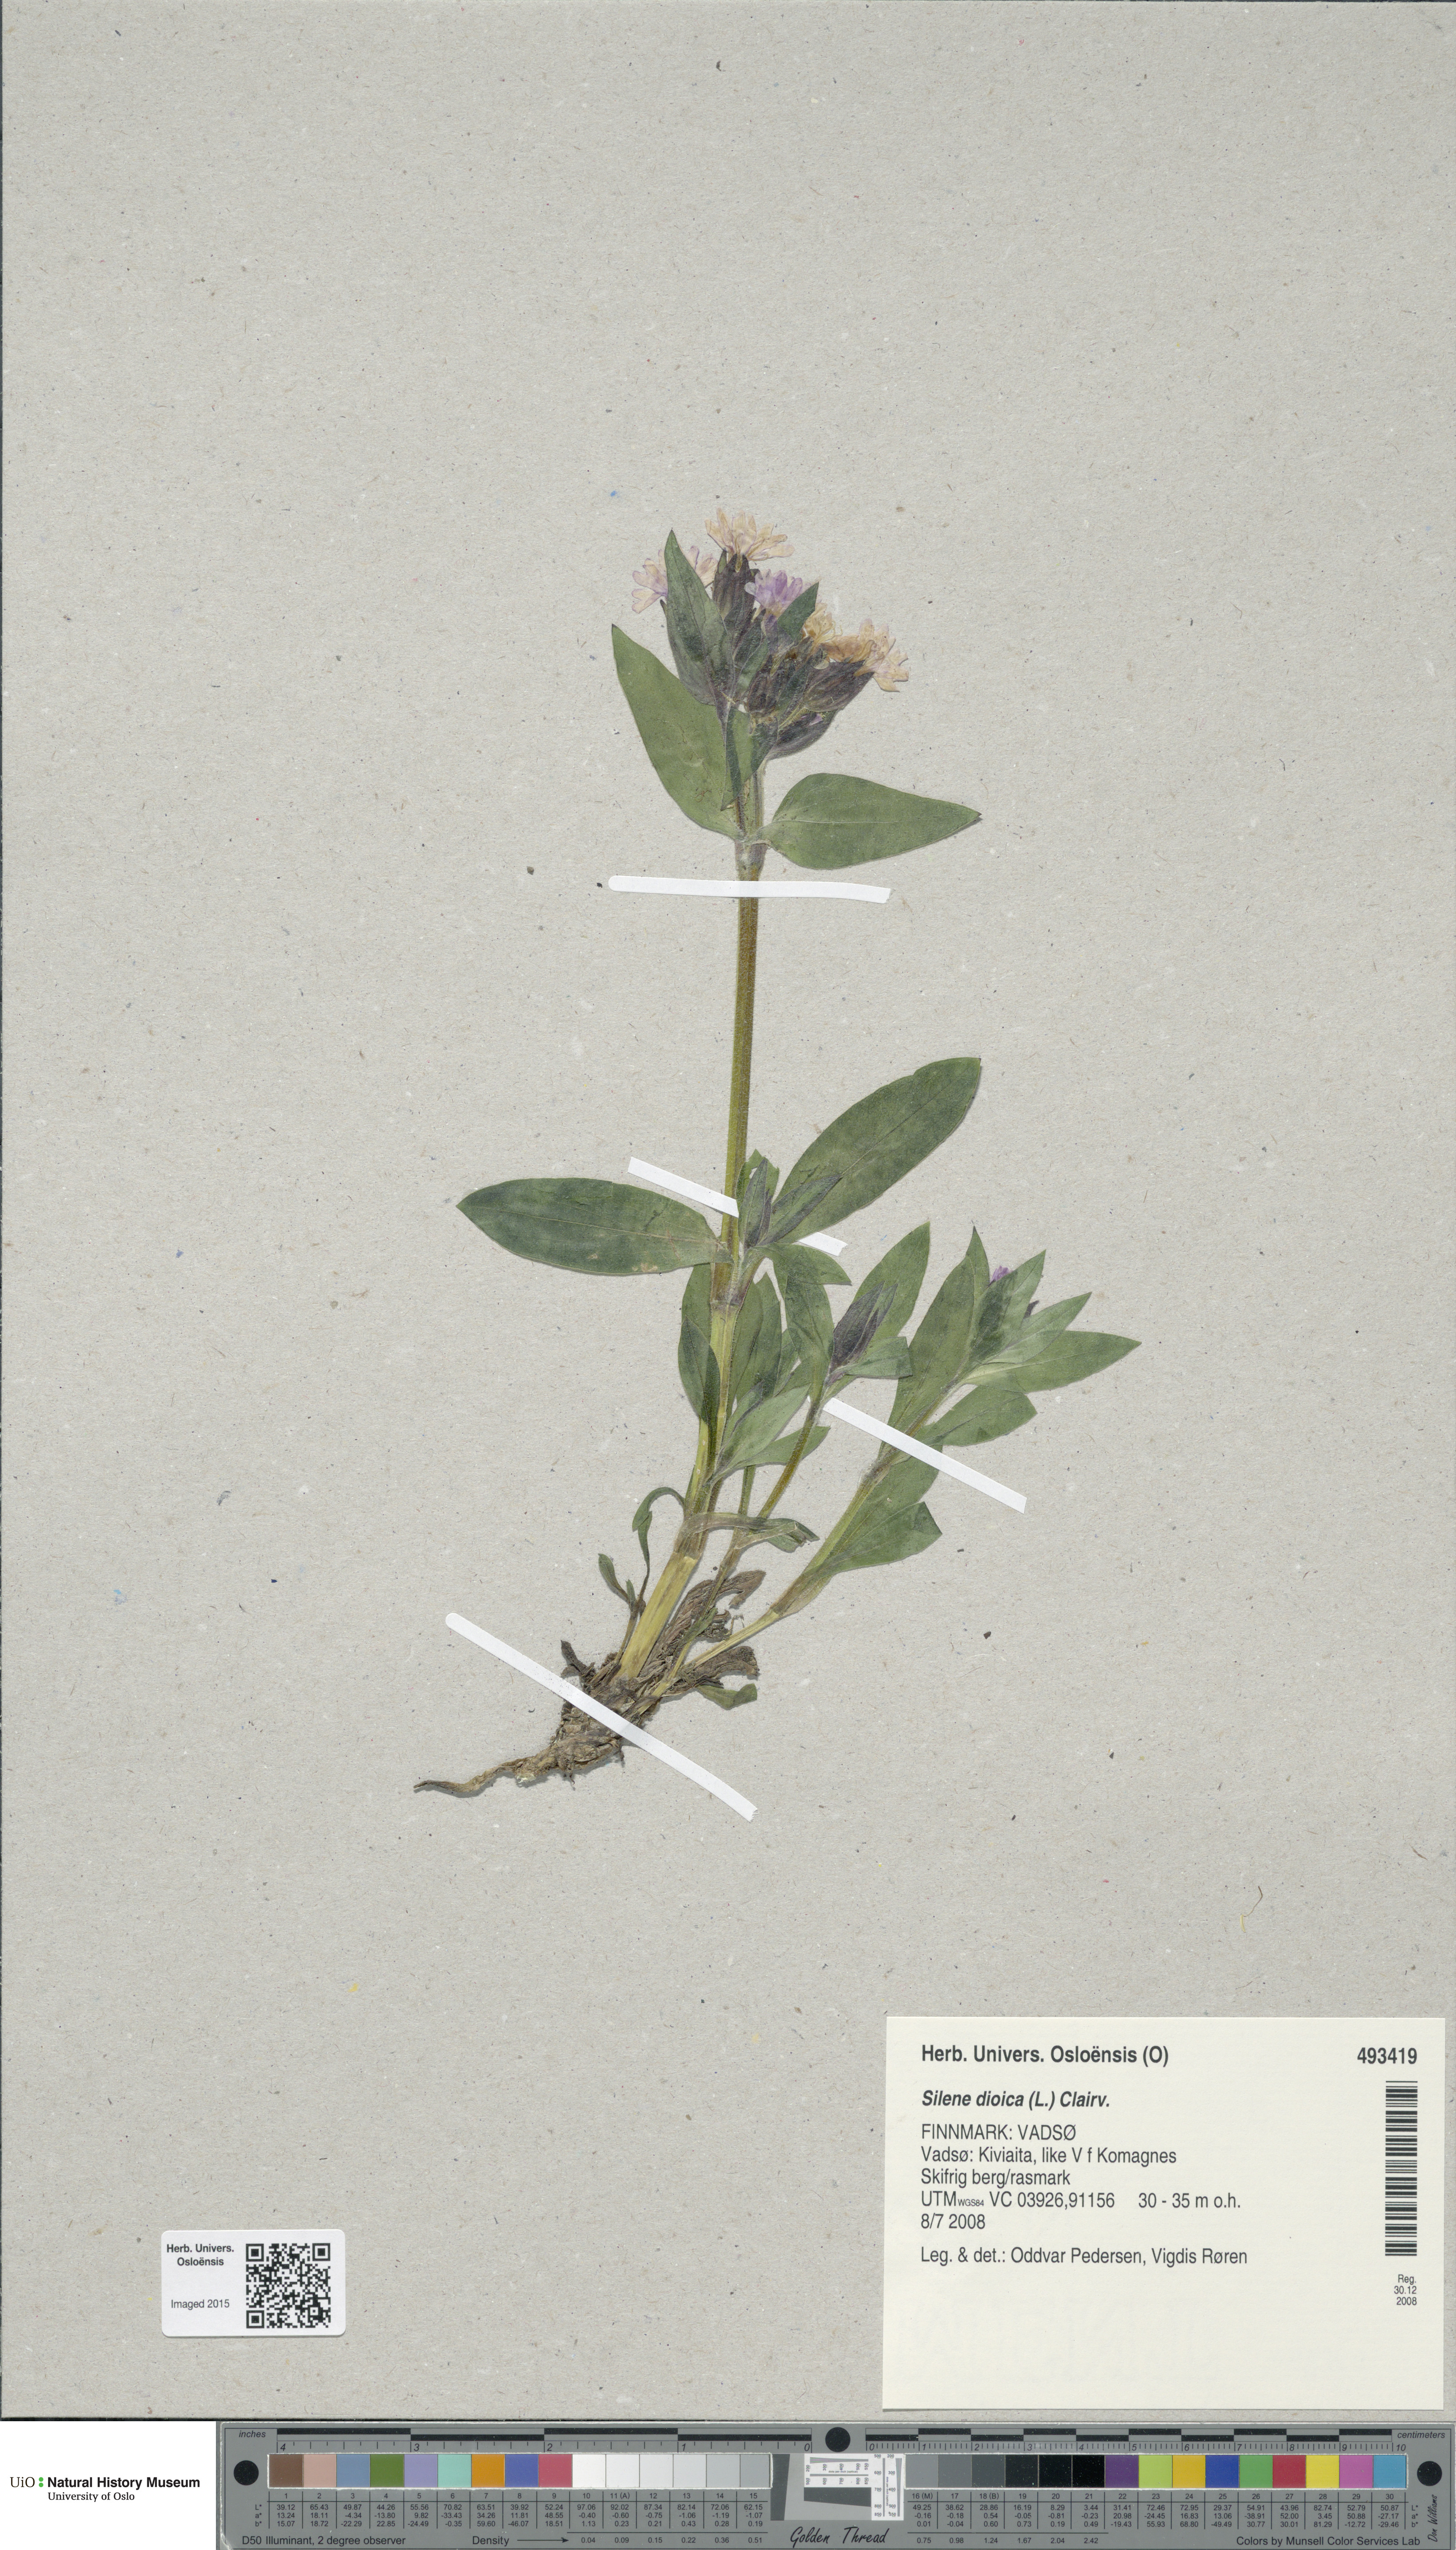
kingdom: Plantae
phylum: Tracheophyta
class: Magnoliopsida
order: Caryophyllales
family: Caryophyllaceae
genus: Silene
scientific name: Silene dioica
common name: Red campion
